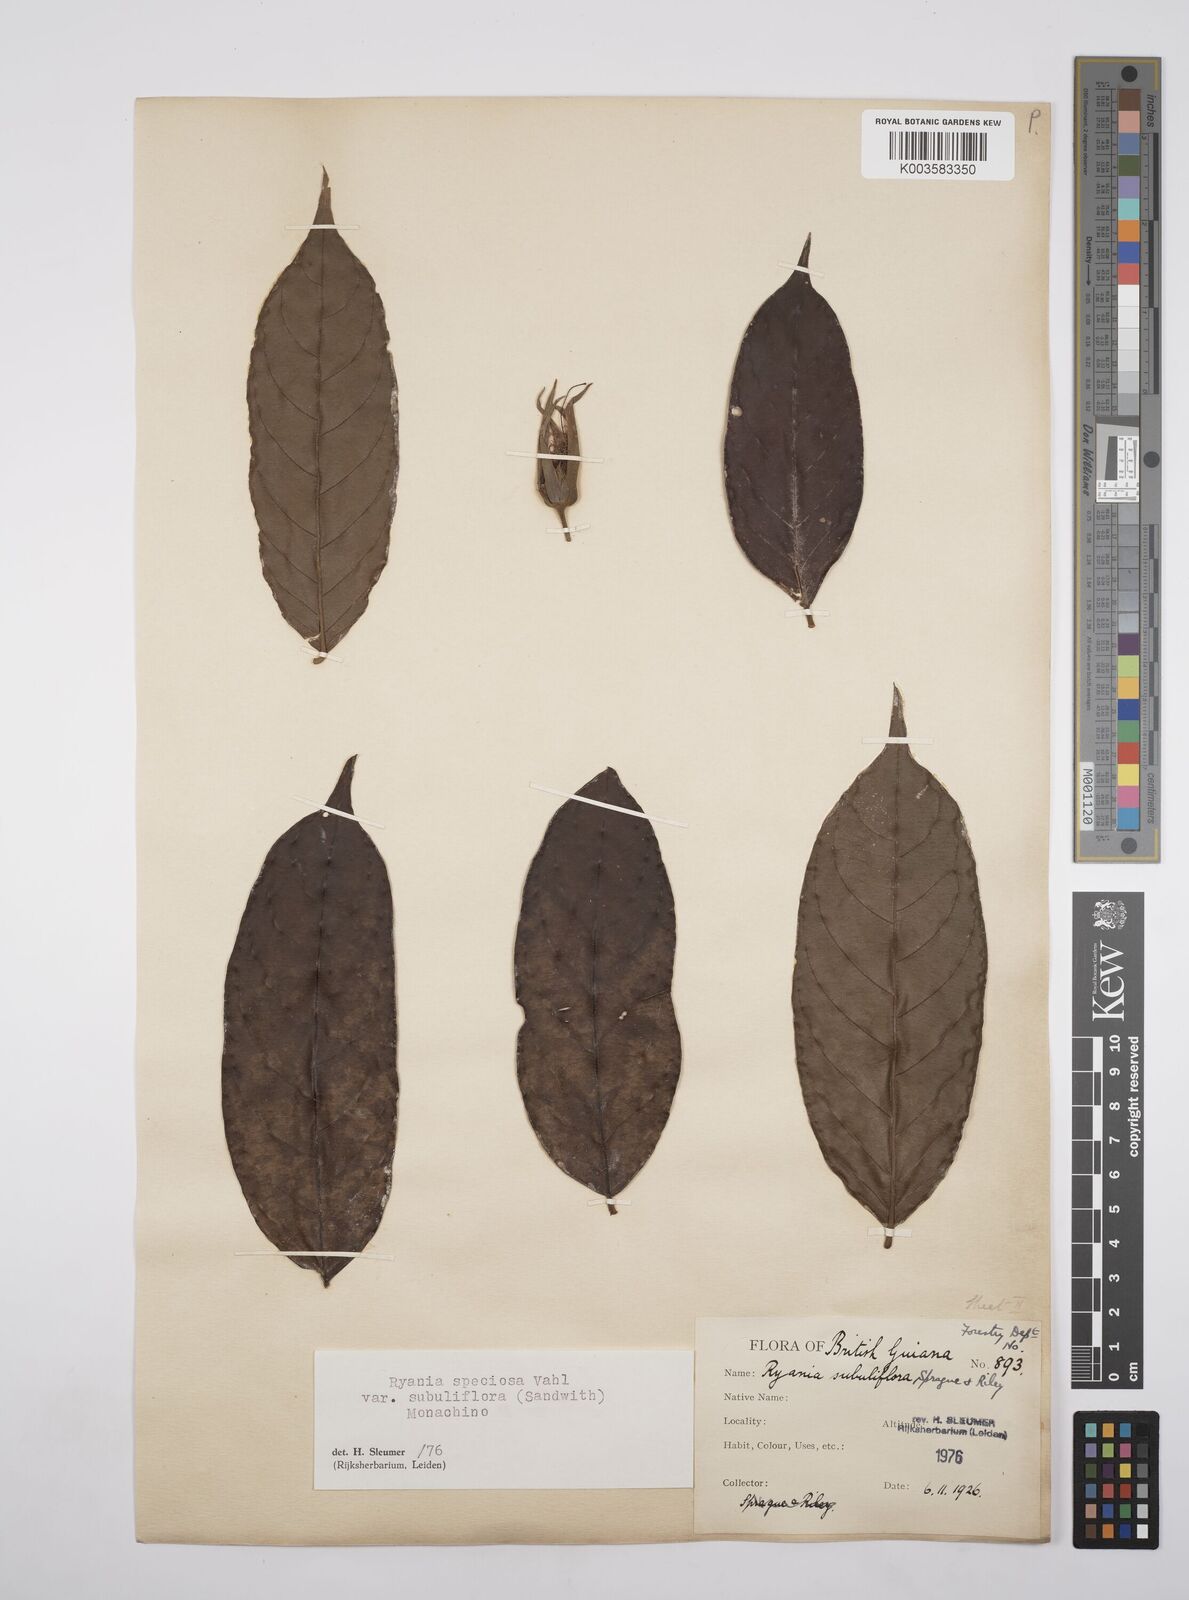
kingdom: Plantae
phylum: Tracheophyta
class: Magnoliopsida
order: Malpighiales
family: Salicaceae
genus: Ryania
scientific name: Ryania speciosa
